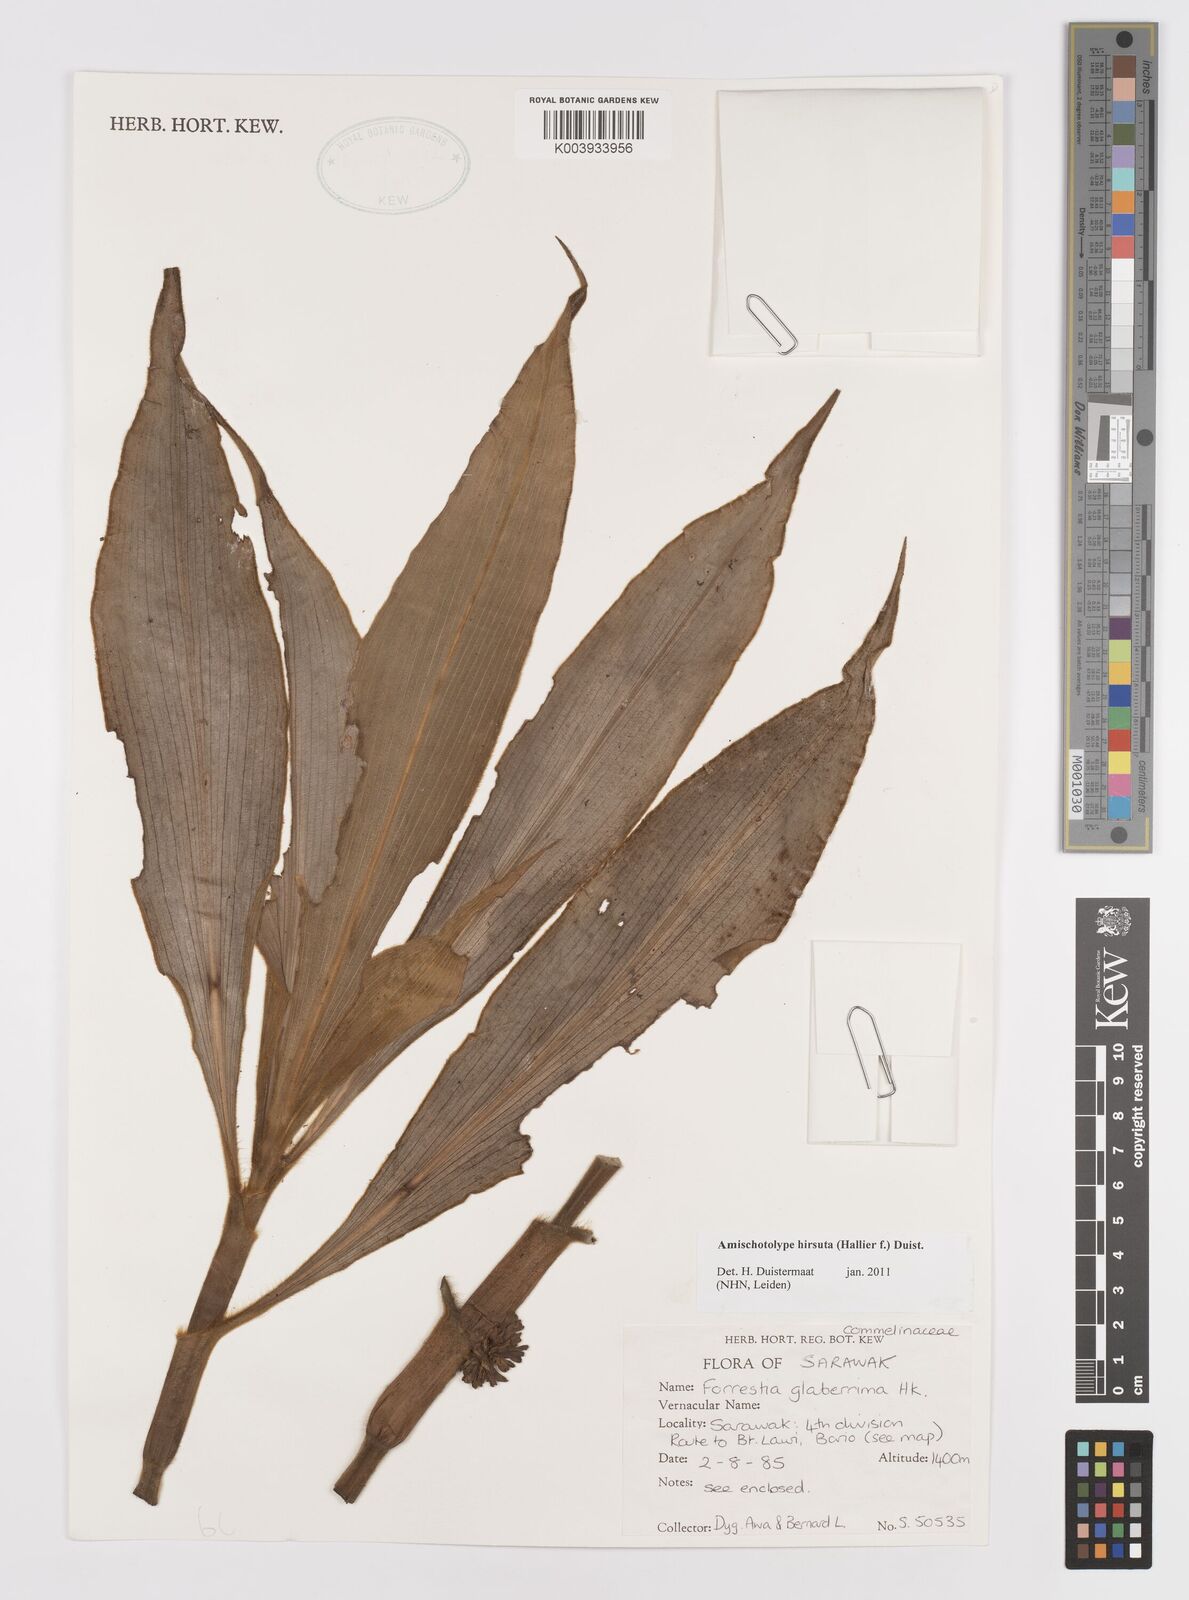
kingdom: Plantae
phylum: Tracheophyta
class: Liliopsida
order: Commelinales
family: Commelinaceae
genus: Amischotolype
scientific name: Amischotolype hirsuta
